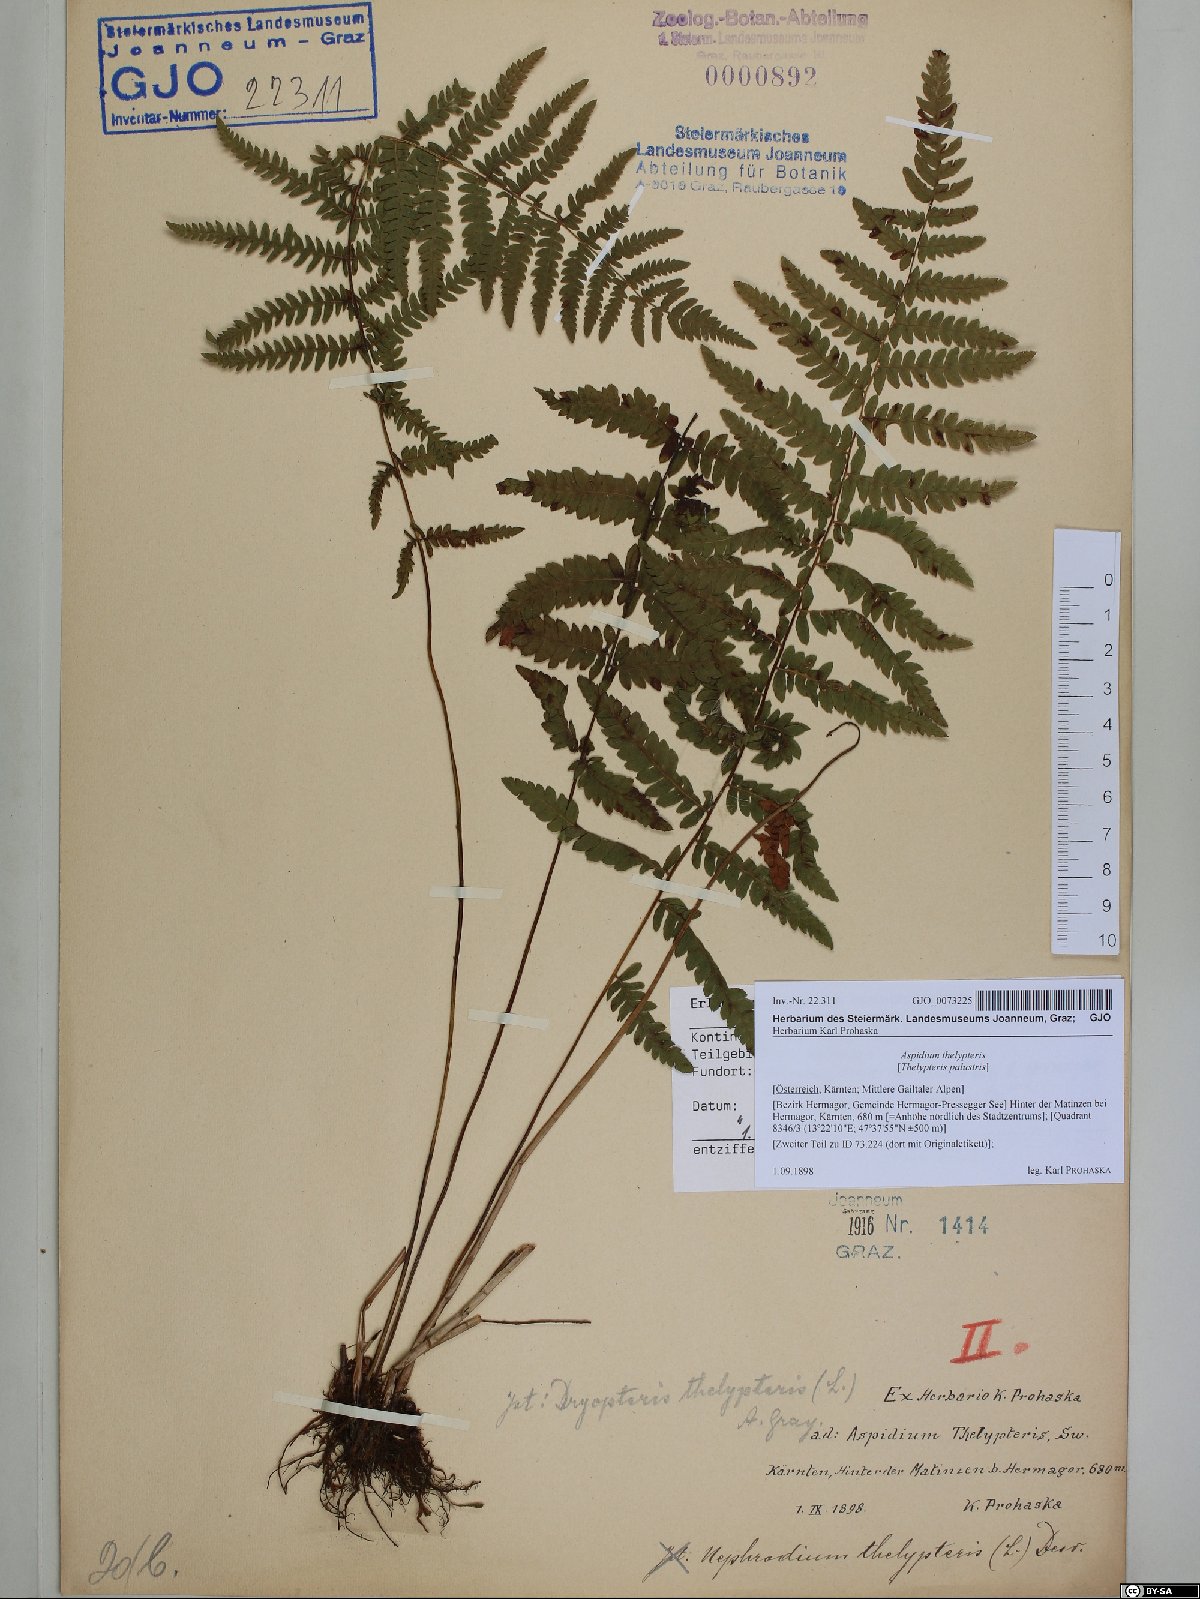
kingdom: Plantae
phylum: Tracheophyta
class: Polypodiopsida
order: Polypodiales
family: Thelypteridaceae
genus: Thelypteris
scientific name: Thelypteris palustris
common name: Marsh fern
